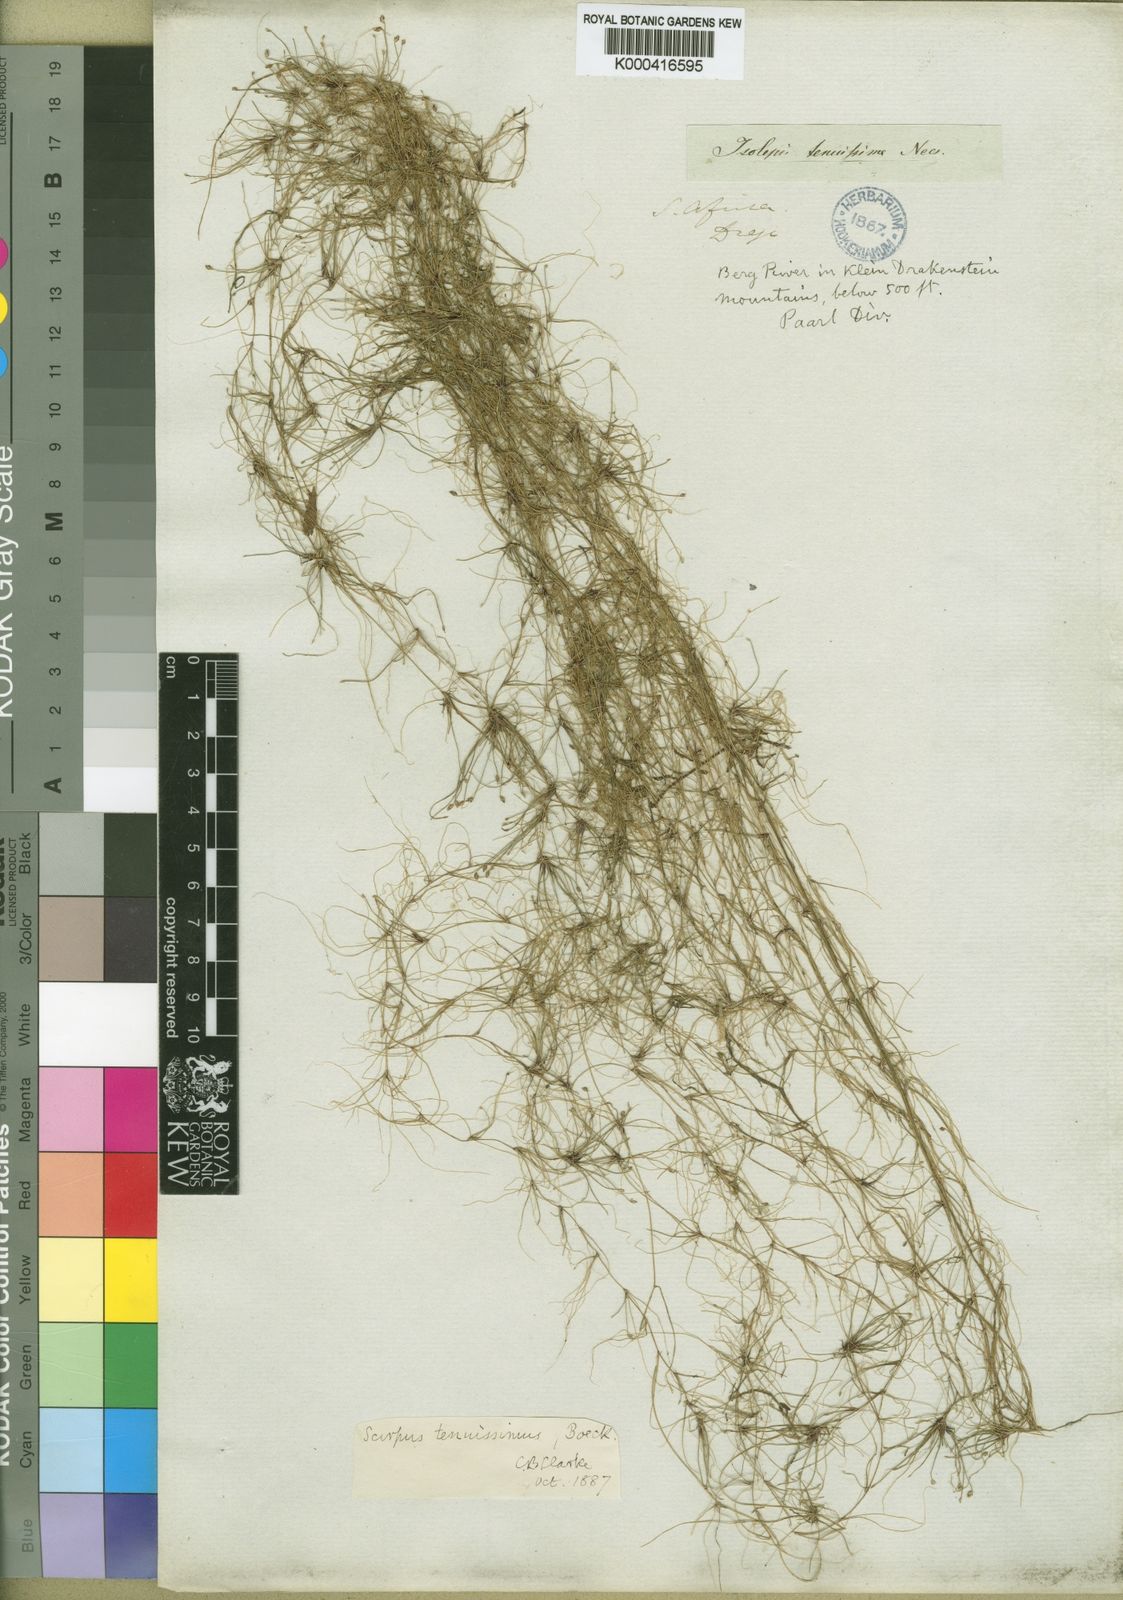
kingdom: Plantae
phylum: Tracheophyta
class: Liliopsida
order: Poales
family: Cyperaceae
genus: Isolepis
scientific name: Isolepis
